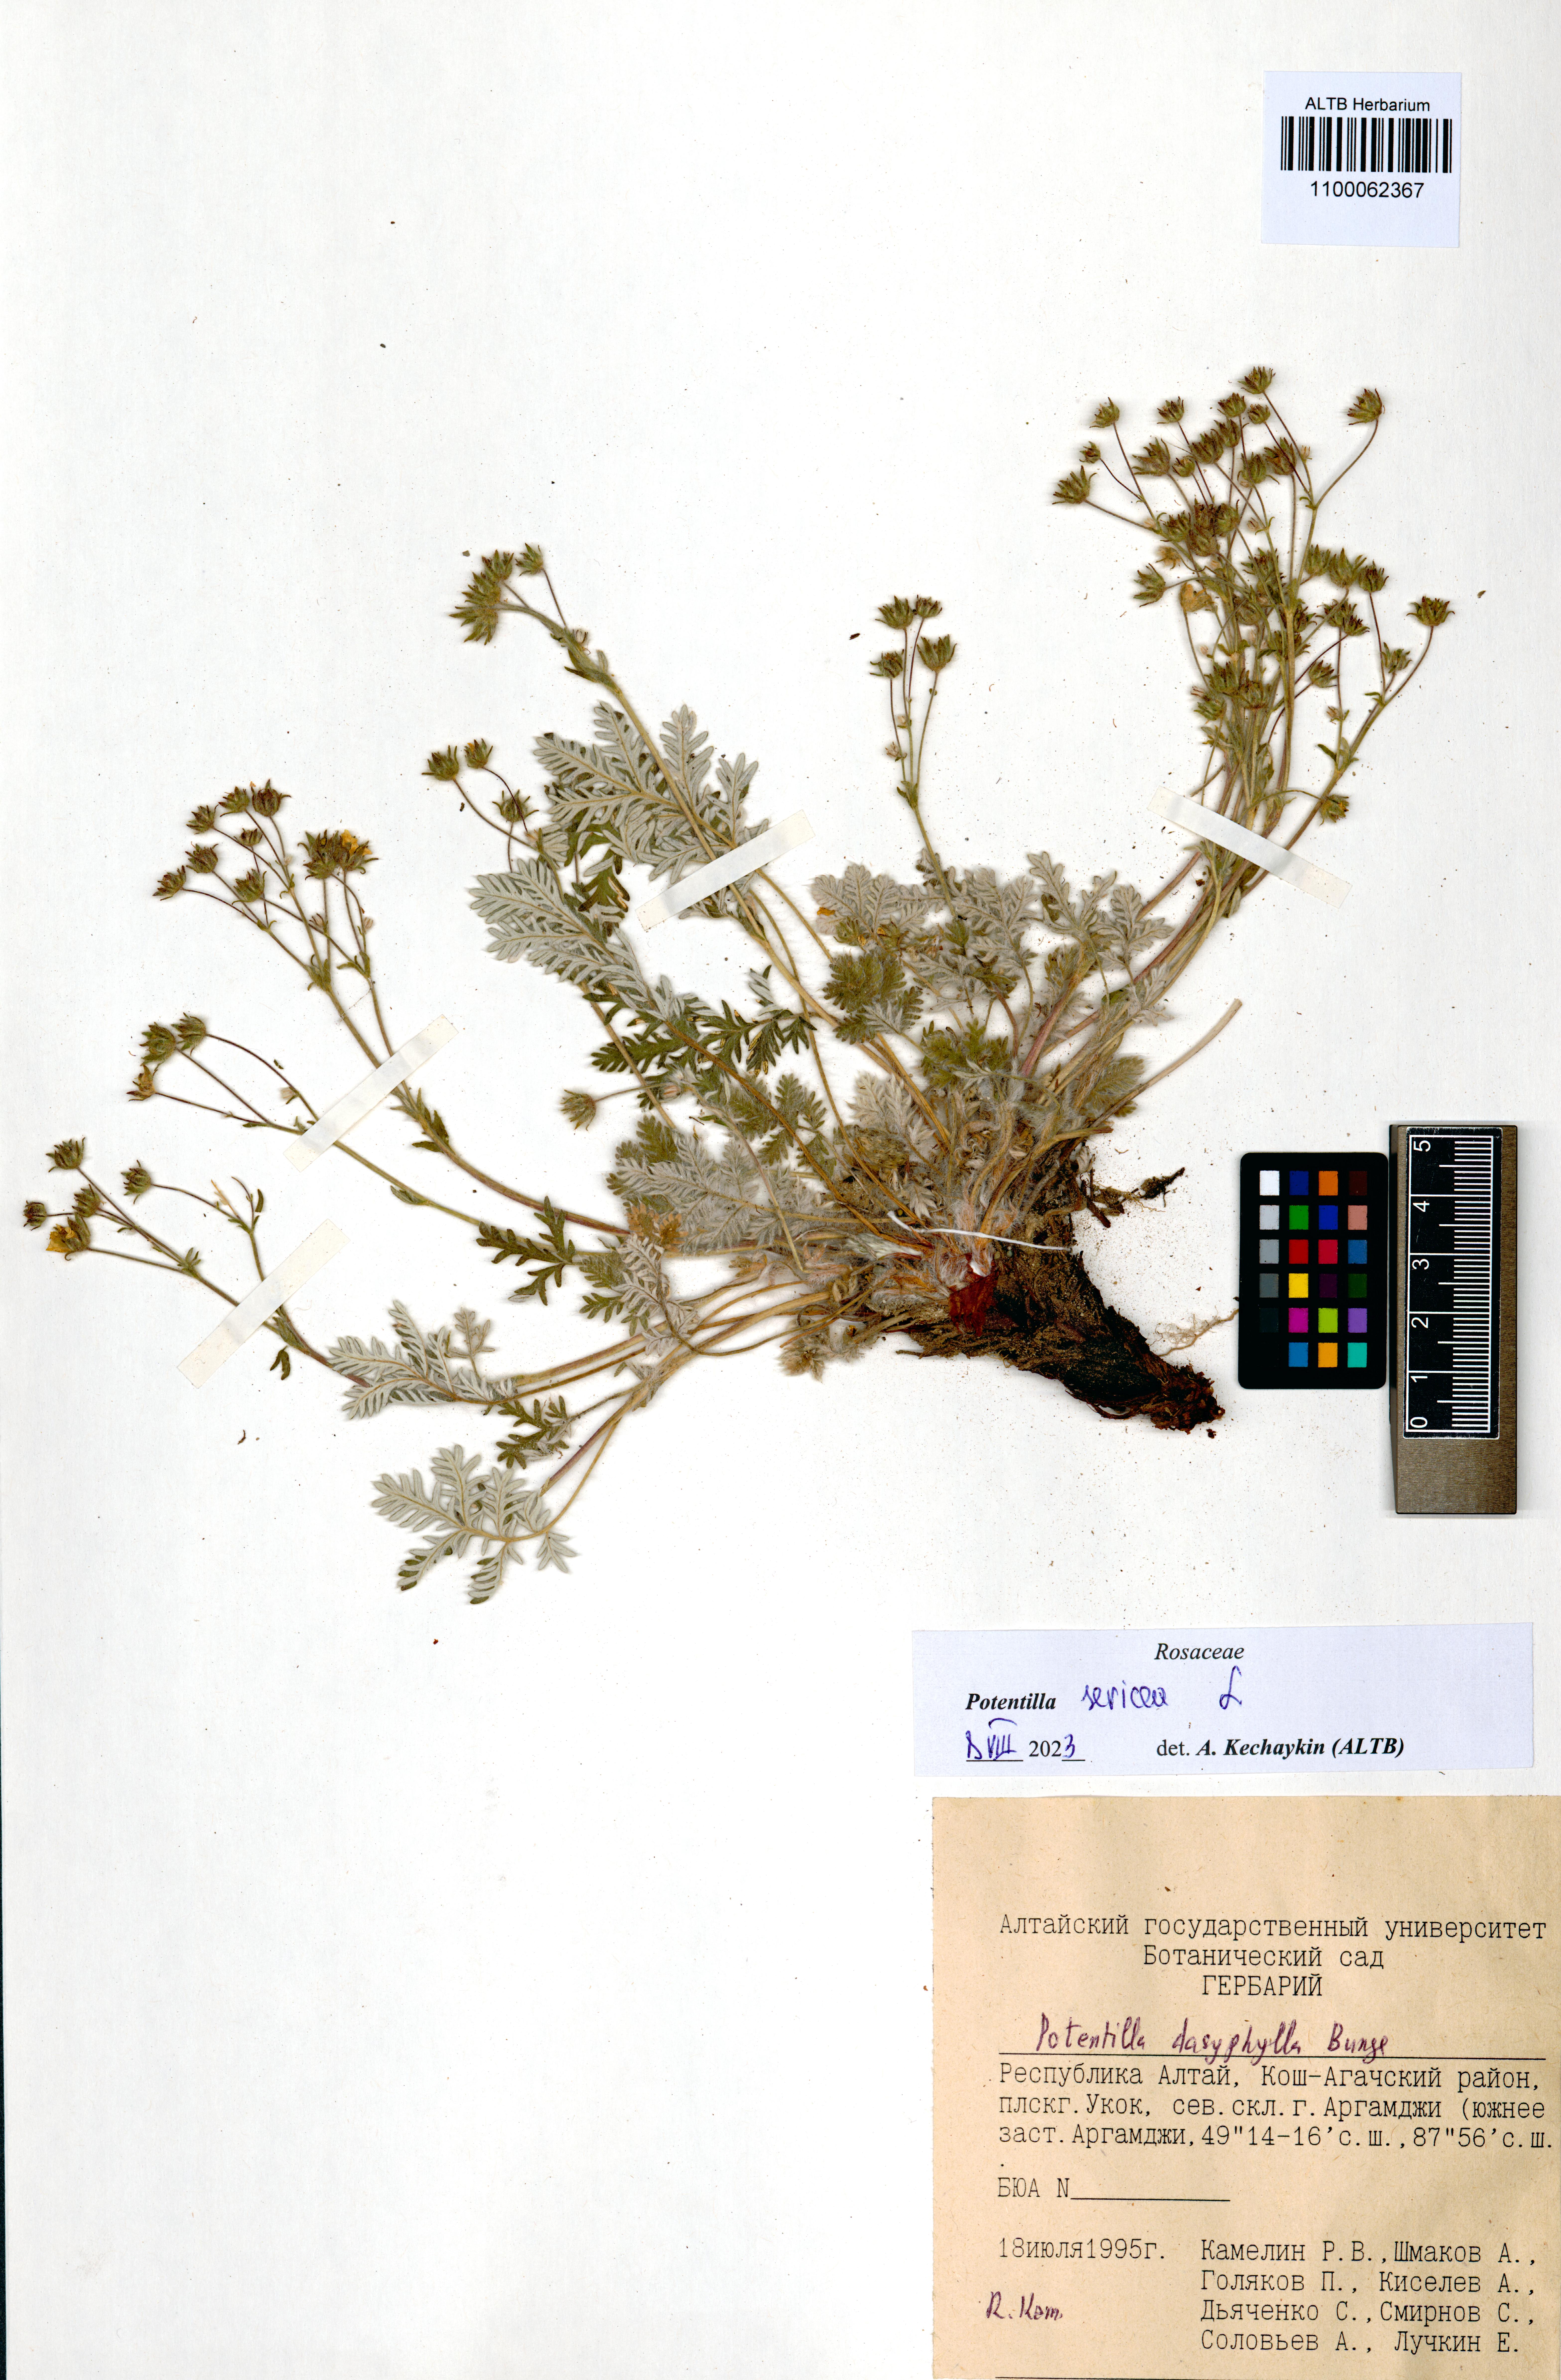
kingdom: Plantae
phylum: Tracheophyta
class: Magnoliopsida
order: Rosales
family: Rosaceae
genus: Potentilla
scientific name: Potentilla sericea
